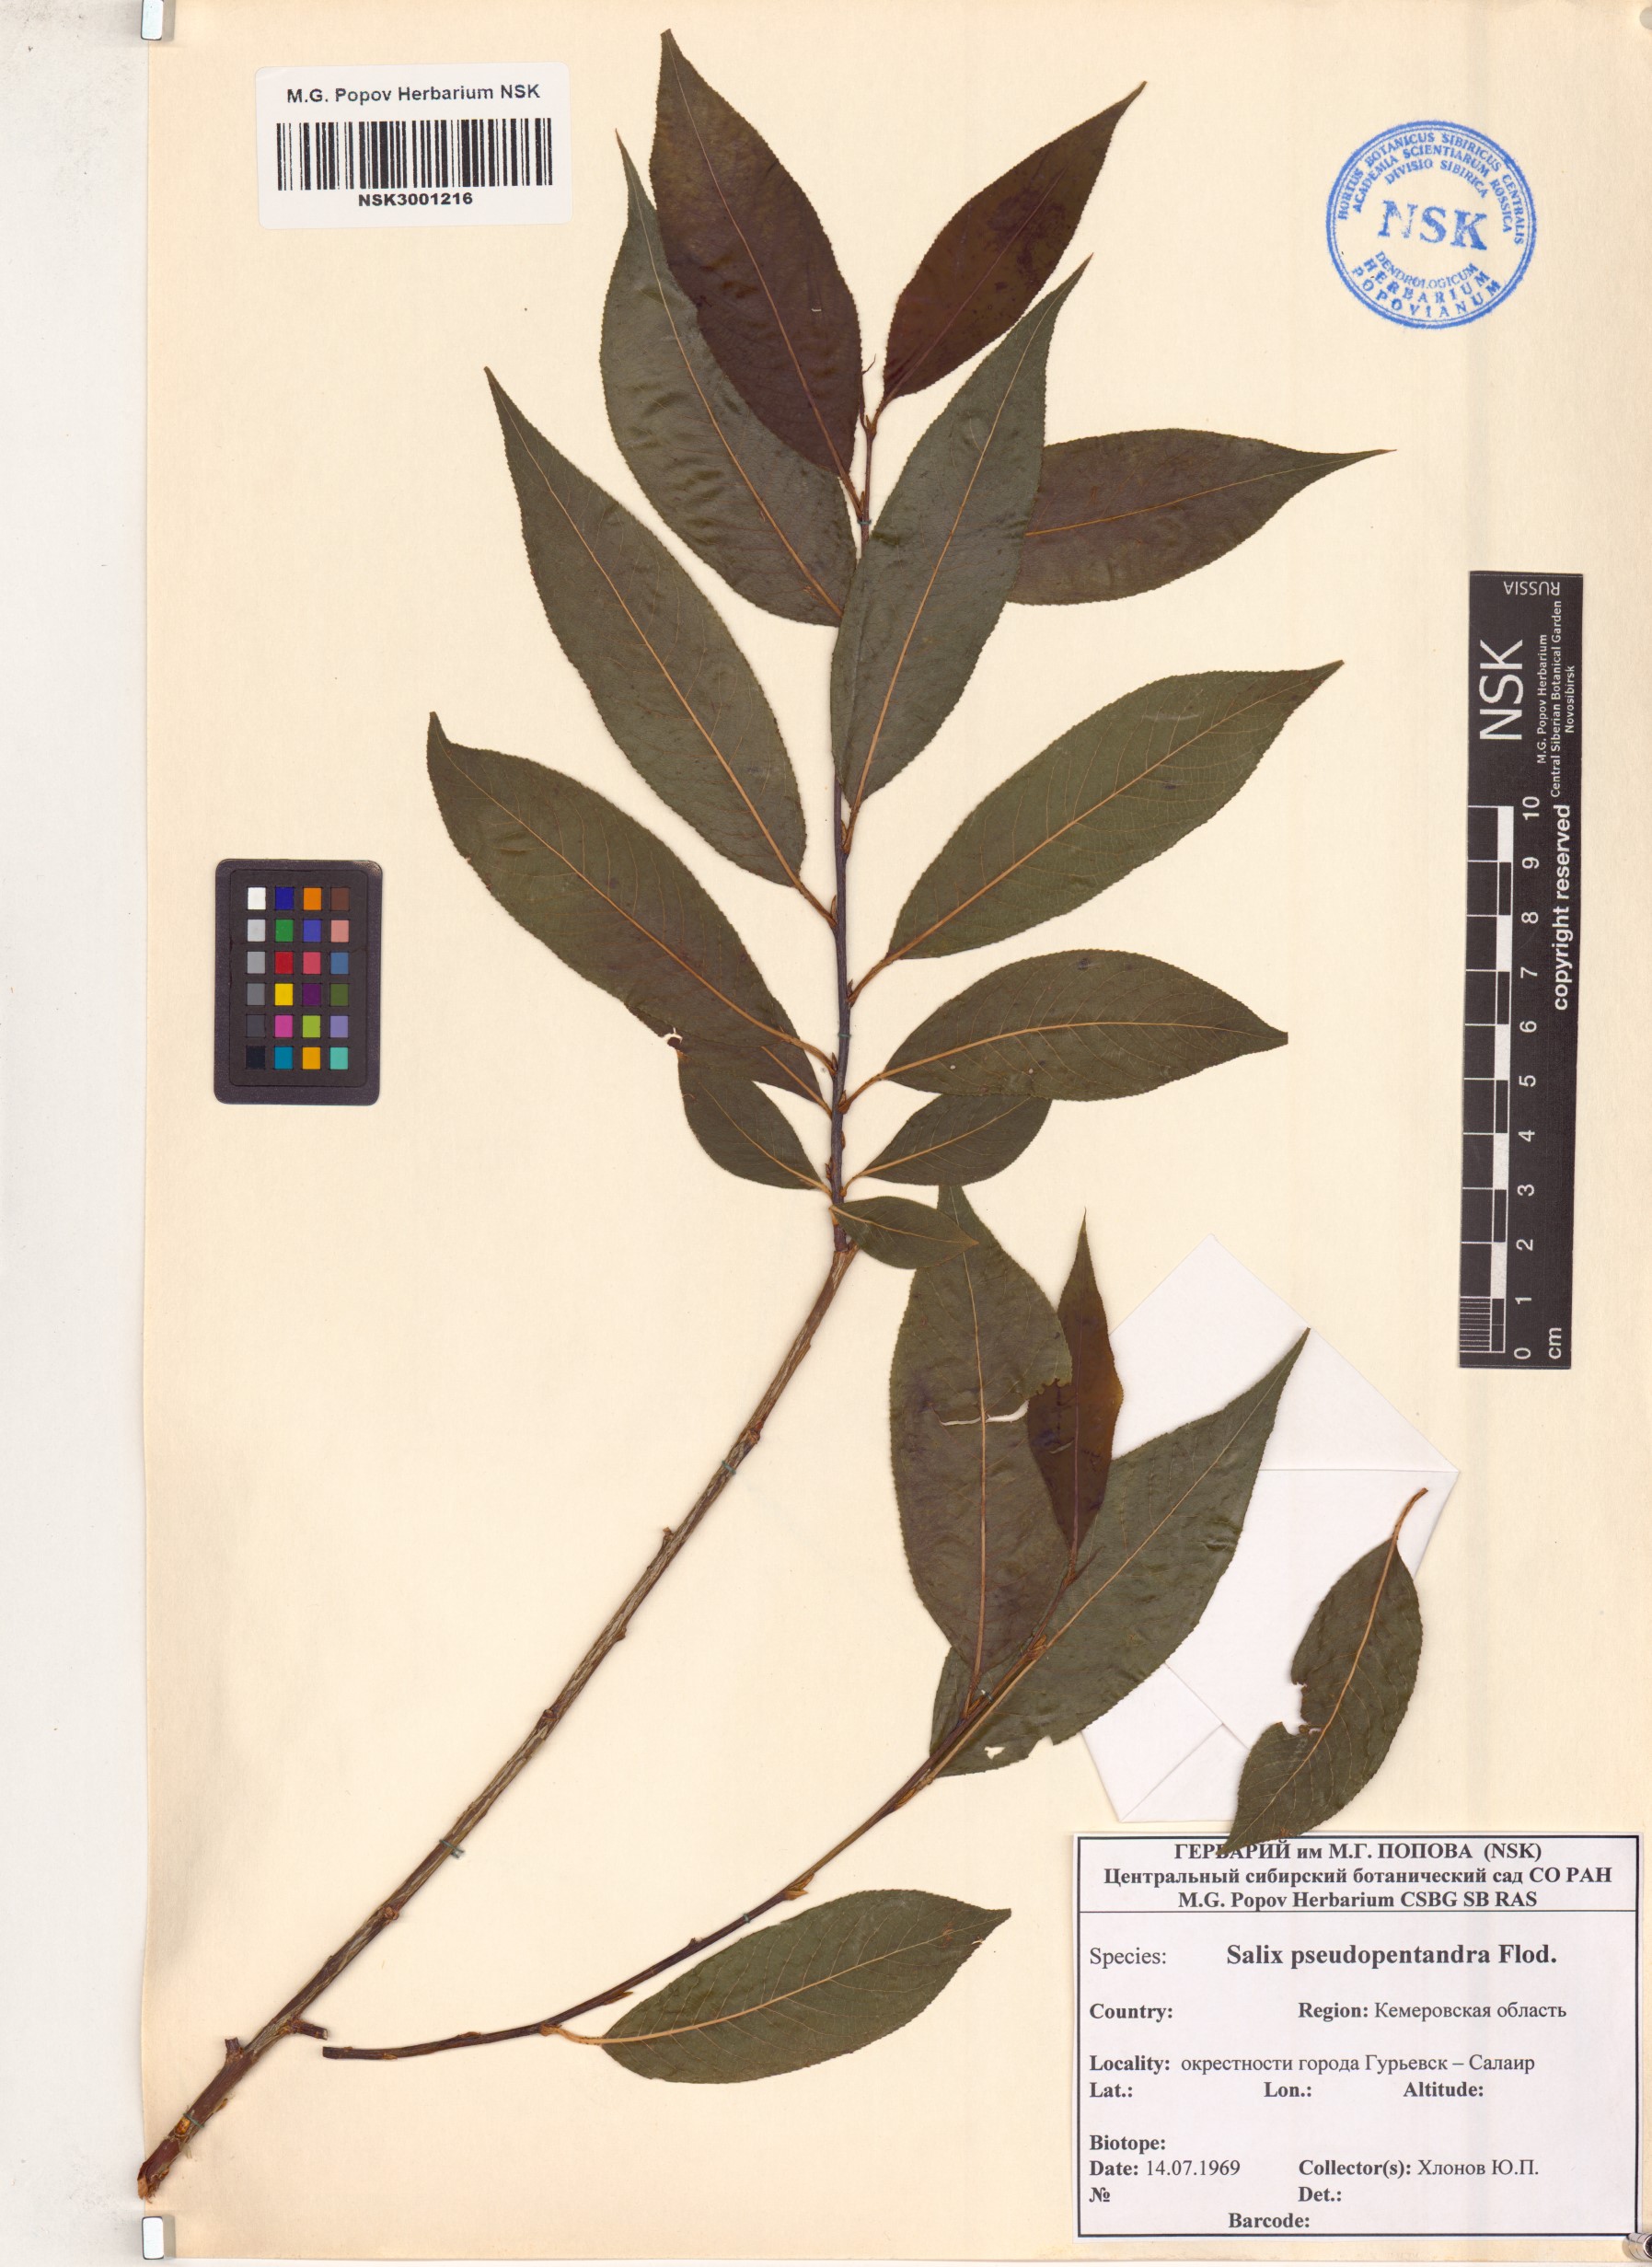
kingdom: Plantae
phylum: Tracheophyta
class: Magnoliopsida
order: Malpighiales
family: Salicaceae
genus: Salix
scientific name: Salix pseudopentandra
